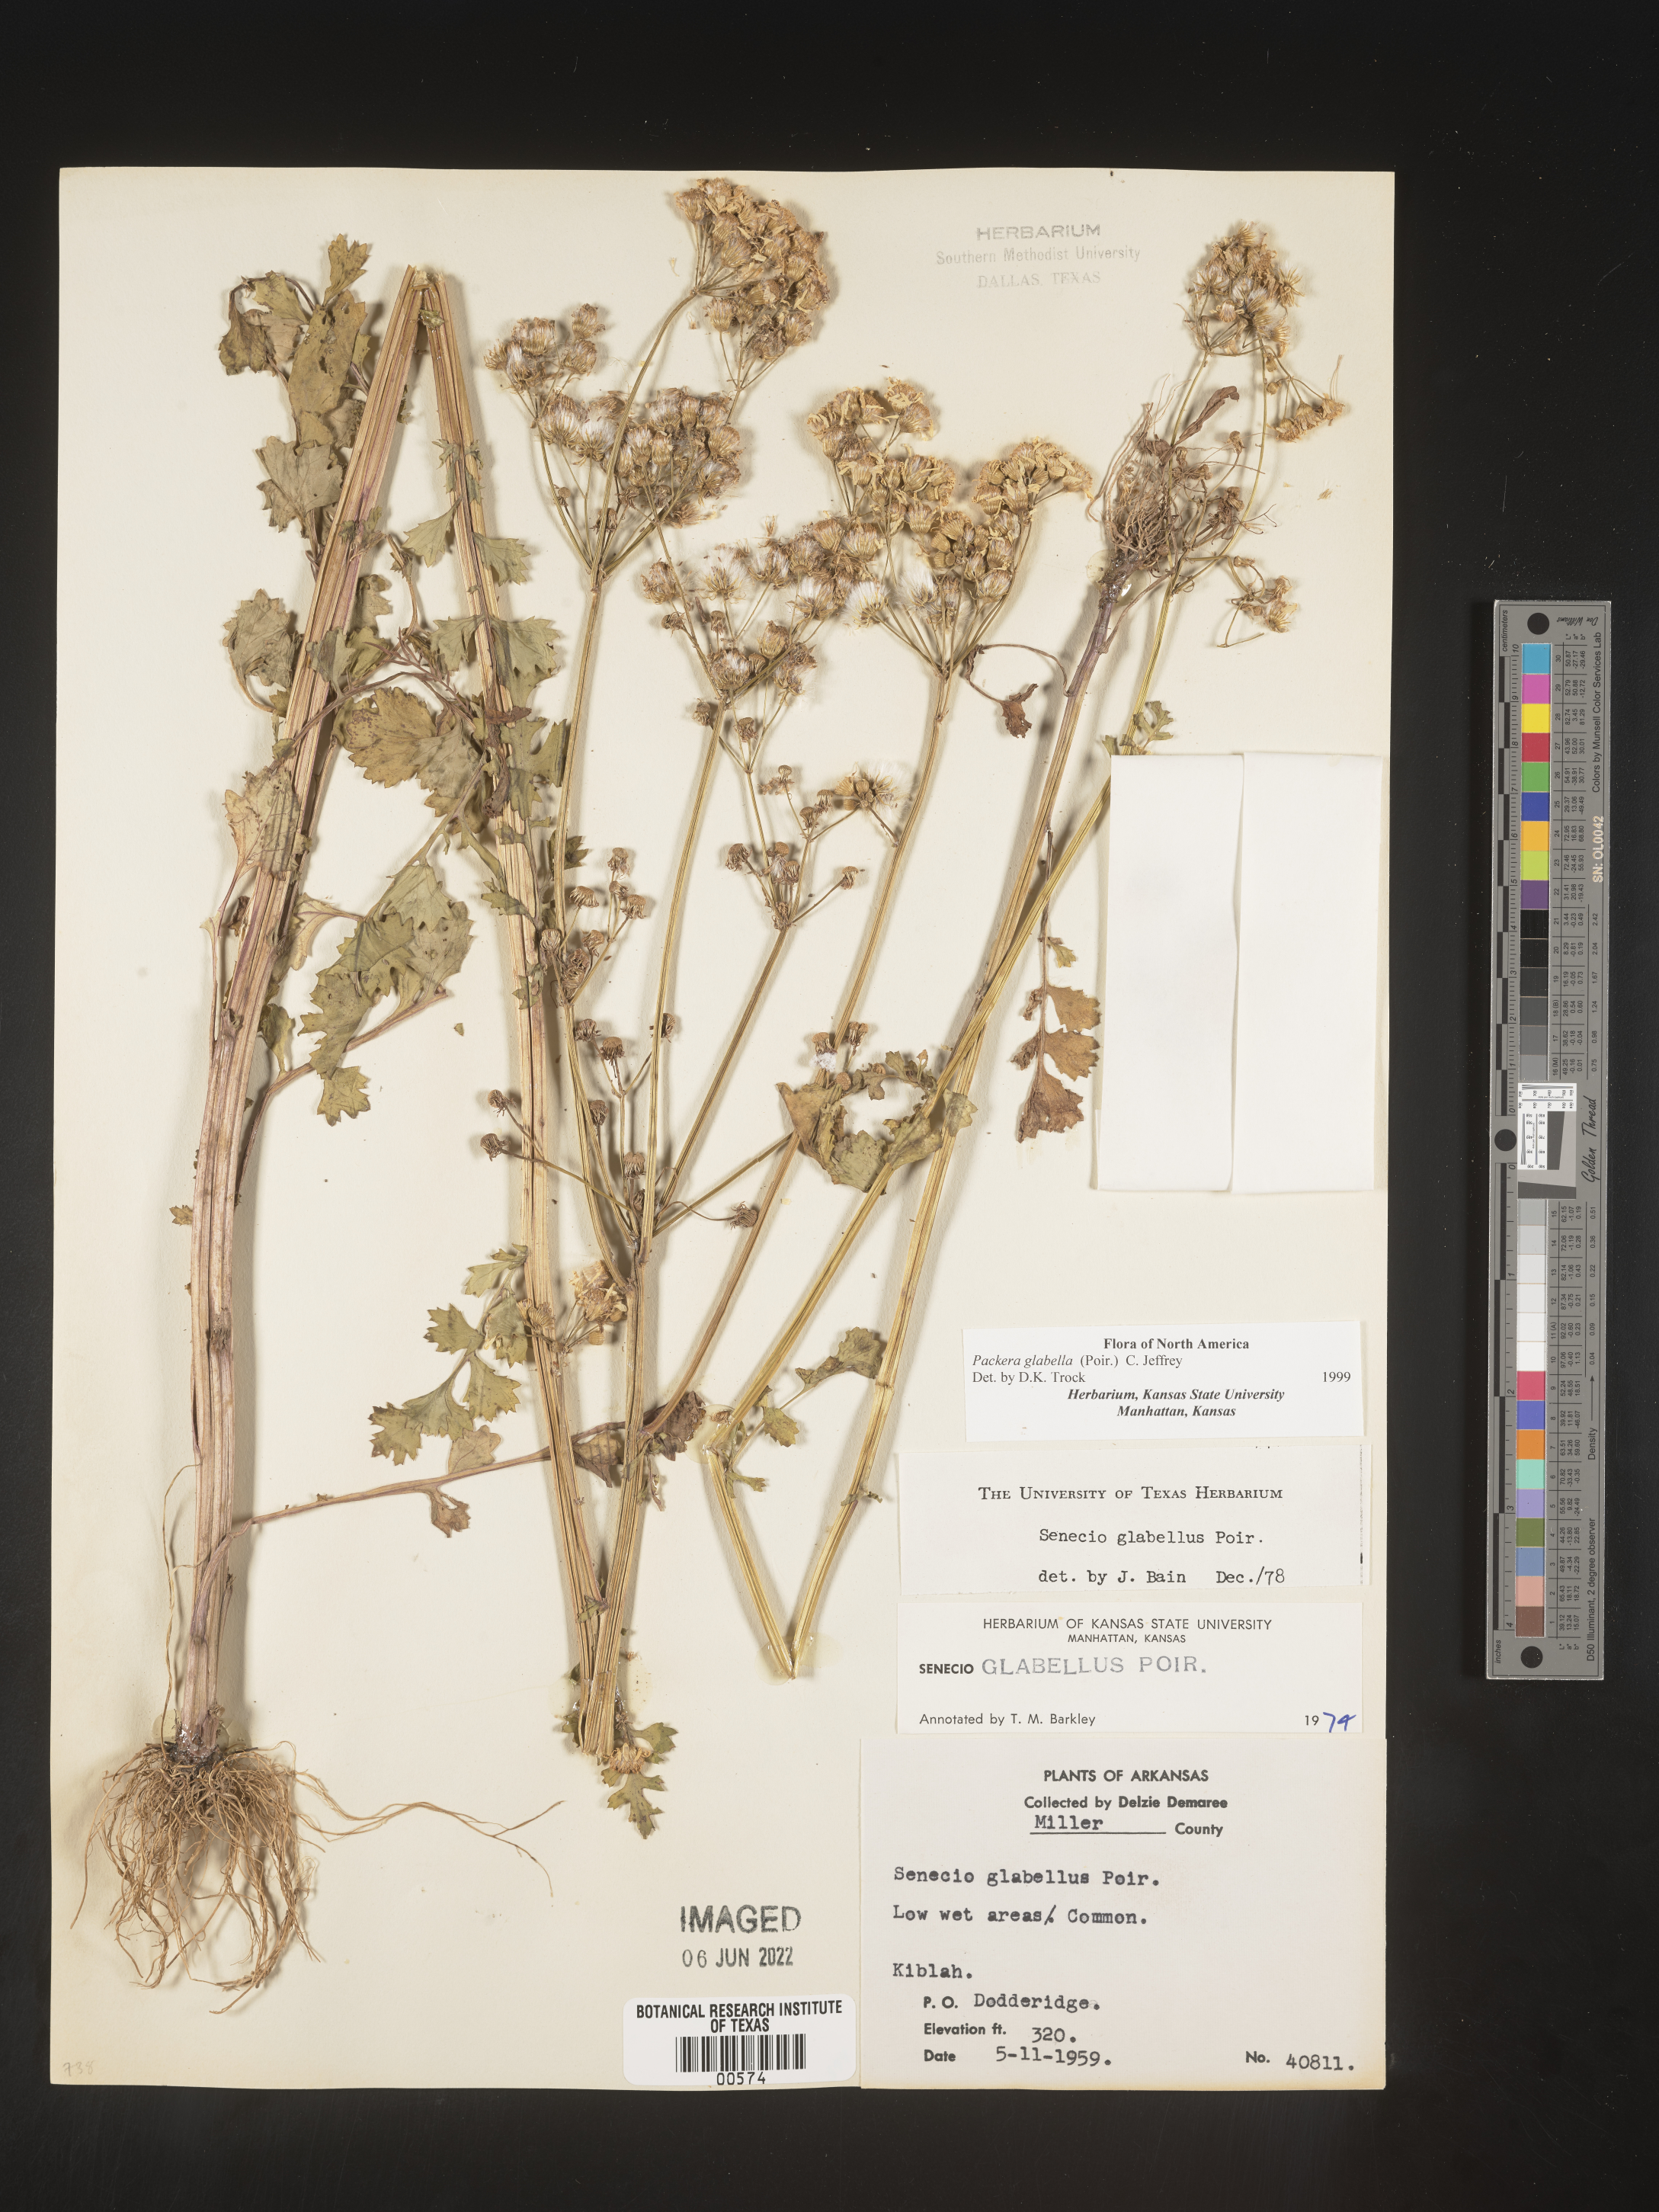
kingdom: Plantae
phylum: Tracheophyta
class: Magnoliopsida
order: Asterales
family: Asteraceae
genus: Packera
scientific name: Packera glabella
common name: Butterweed
